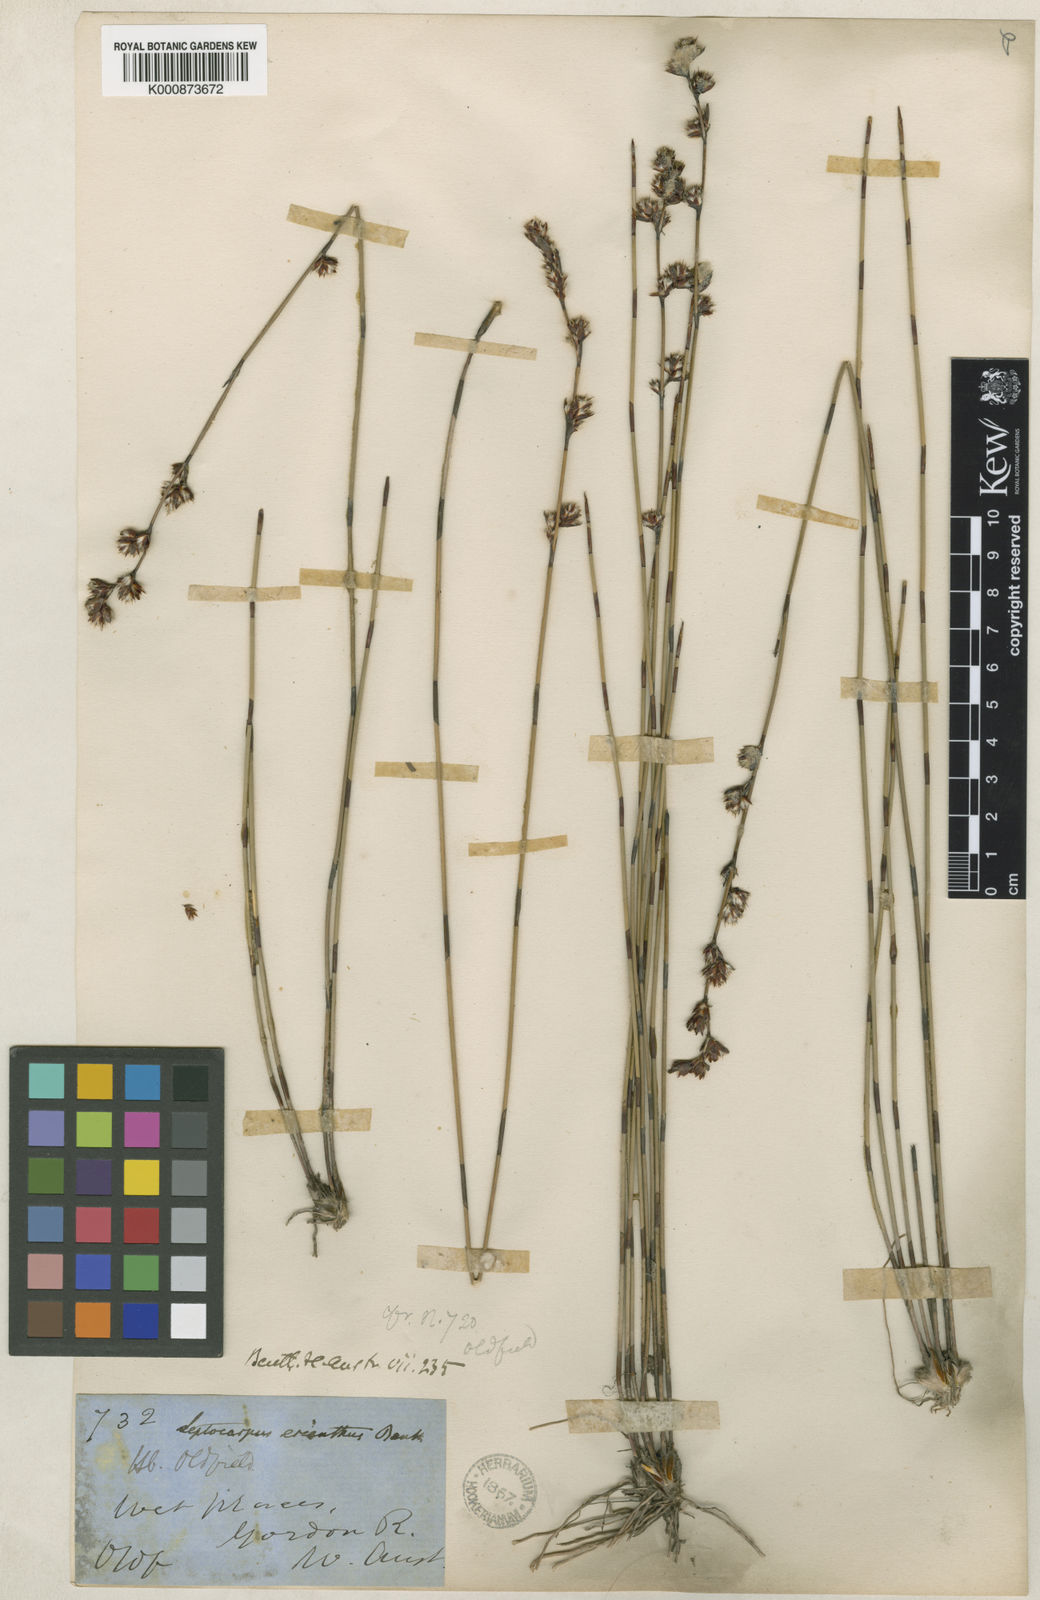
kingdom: Plantae
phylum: Tracheophyta
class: Liliopsida
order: Poales
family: Restionaceae
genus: Chaetanthus
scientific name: Chaetanthus aristatus
